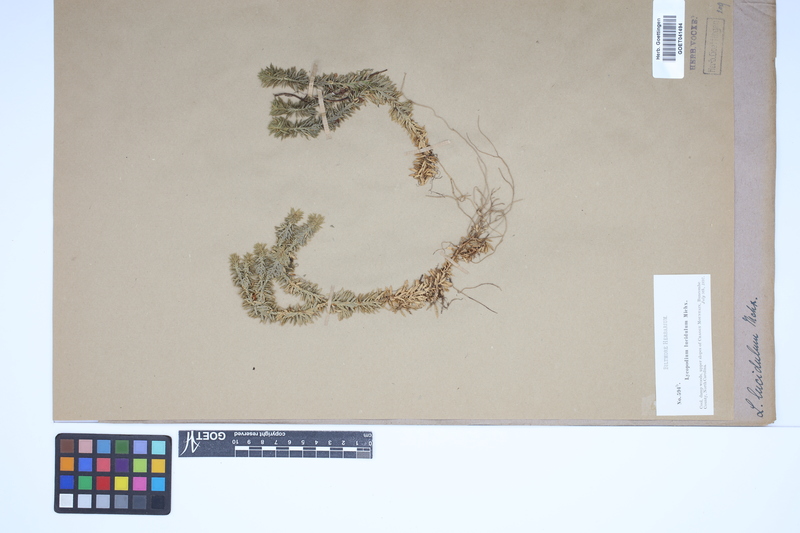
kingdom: Plantae
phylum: Tracheophyta
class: Lycopodiopsida
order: Lycopodiales
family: Lycopodiaceae
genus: Huperzia
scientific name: Huperzia lucidula
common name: Shining clubmoss
